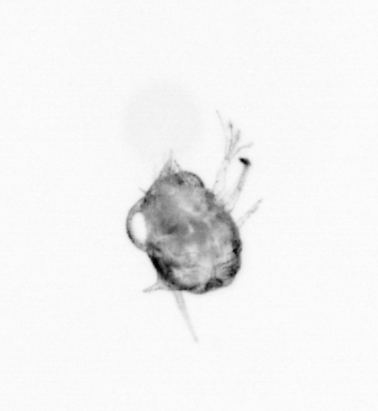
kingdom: Animalia
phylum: Arthropoda
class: Copepoda
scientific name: Copepoda
